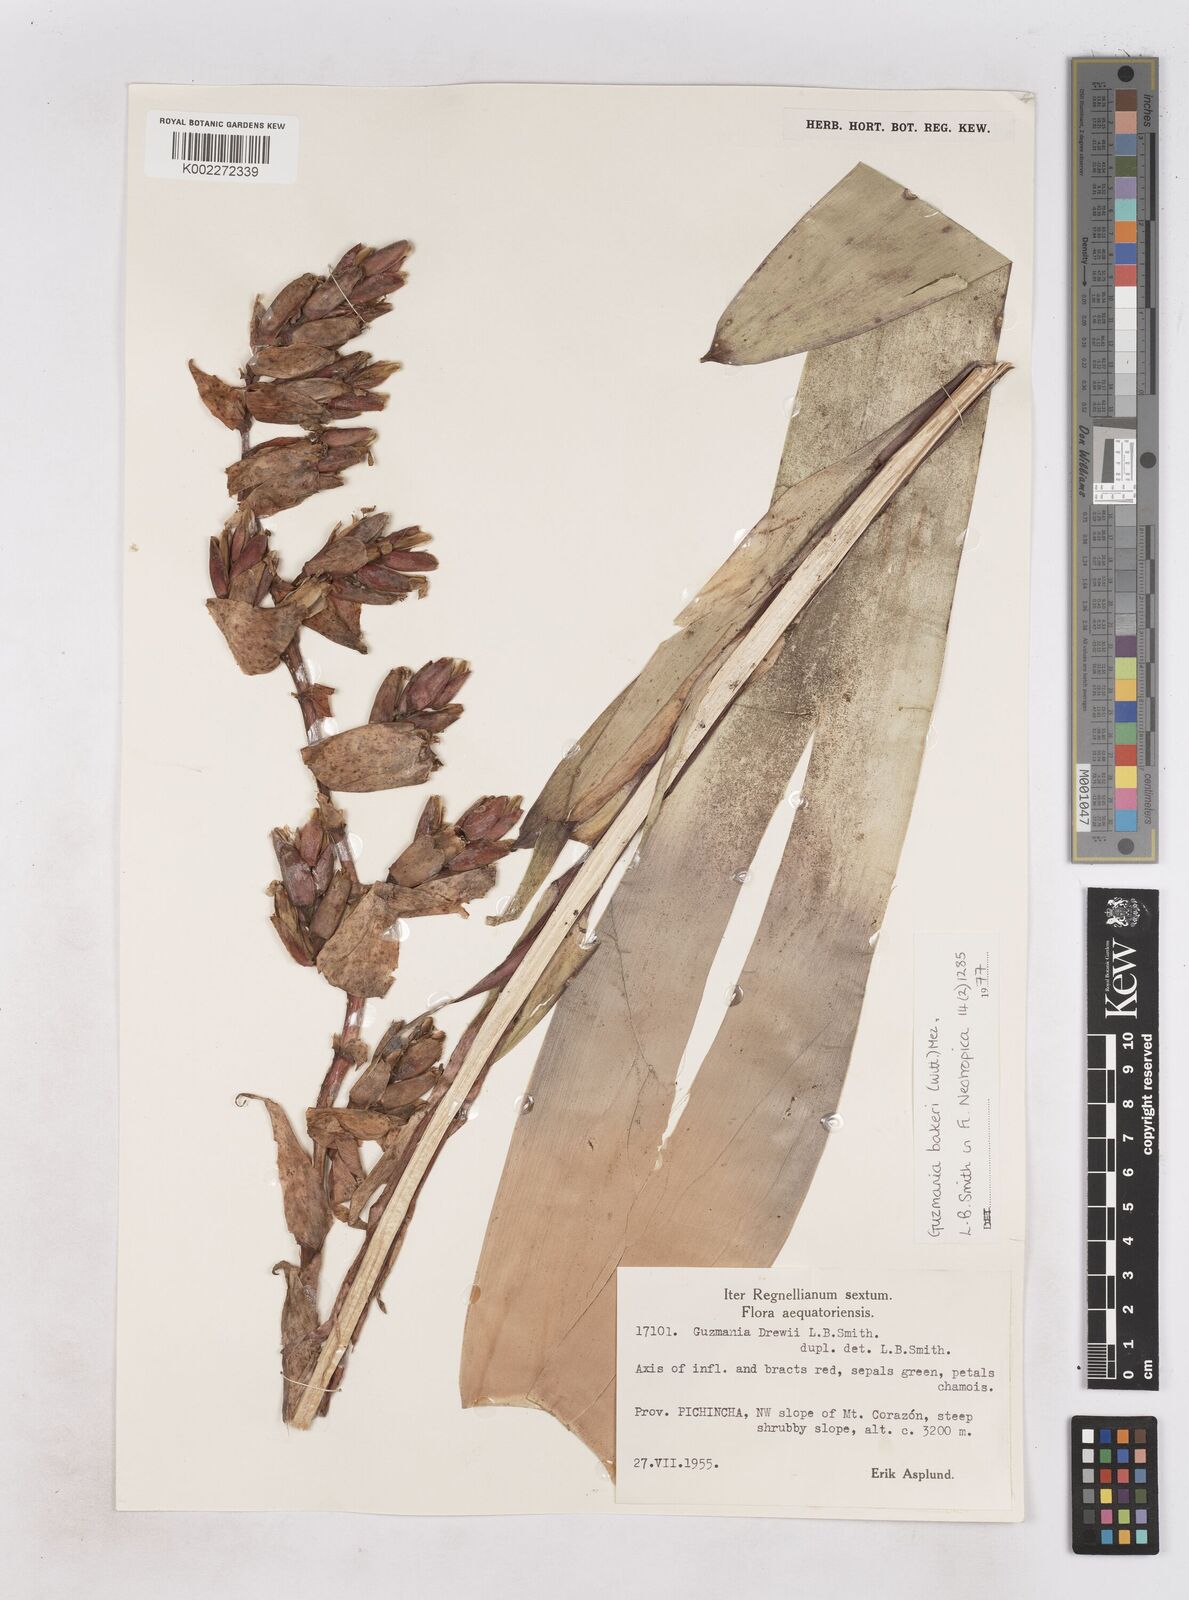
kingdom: Plantae
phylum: Tracheophyta
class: Liliopsida
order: Poales
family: Bromeliaceae
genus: Guzmania
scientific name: Guzmania bakeri
